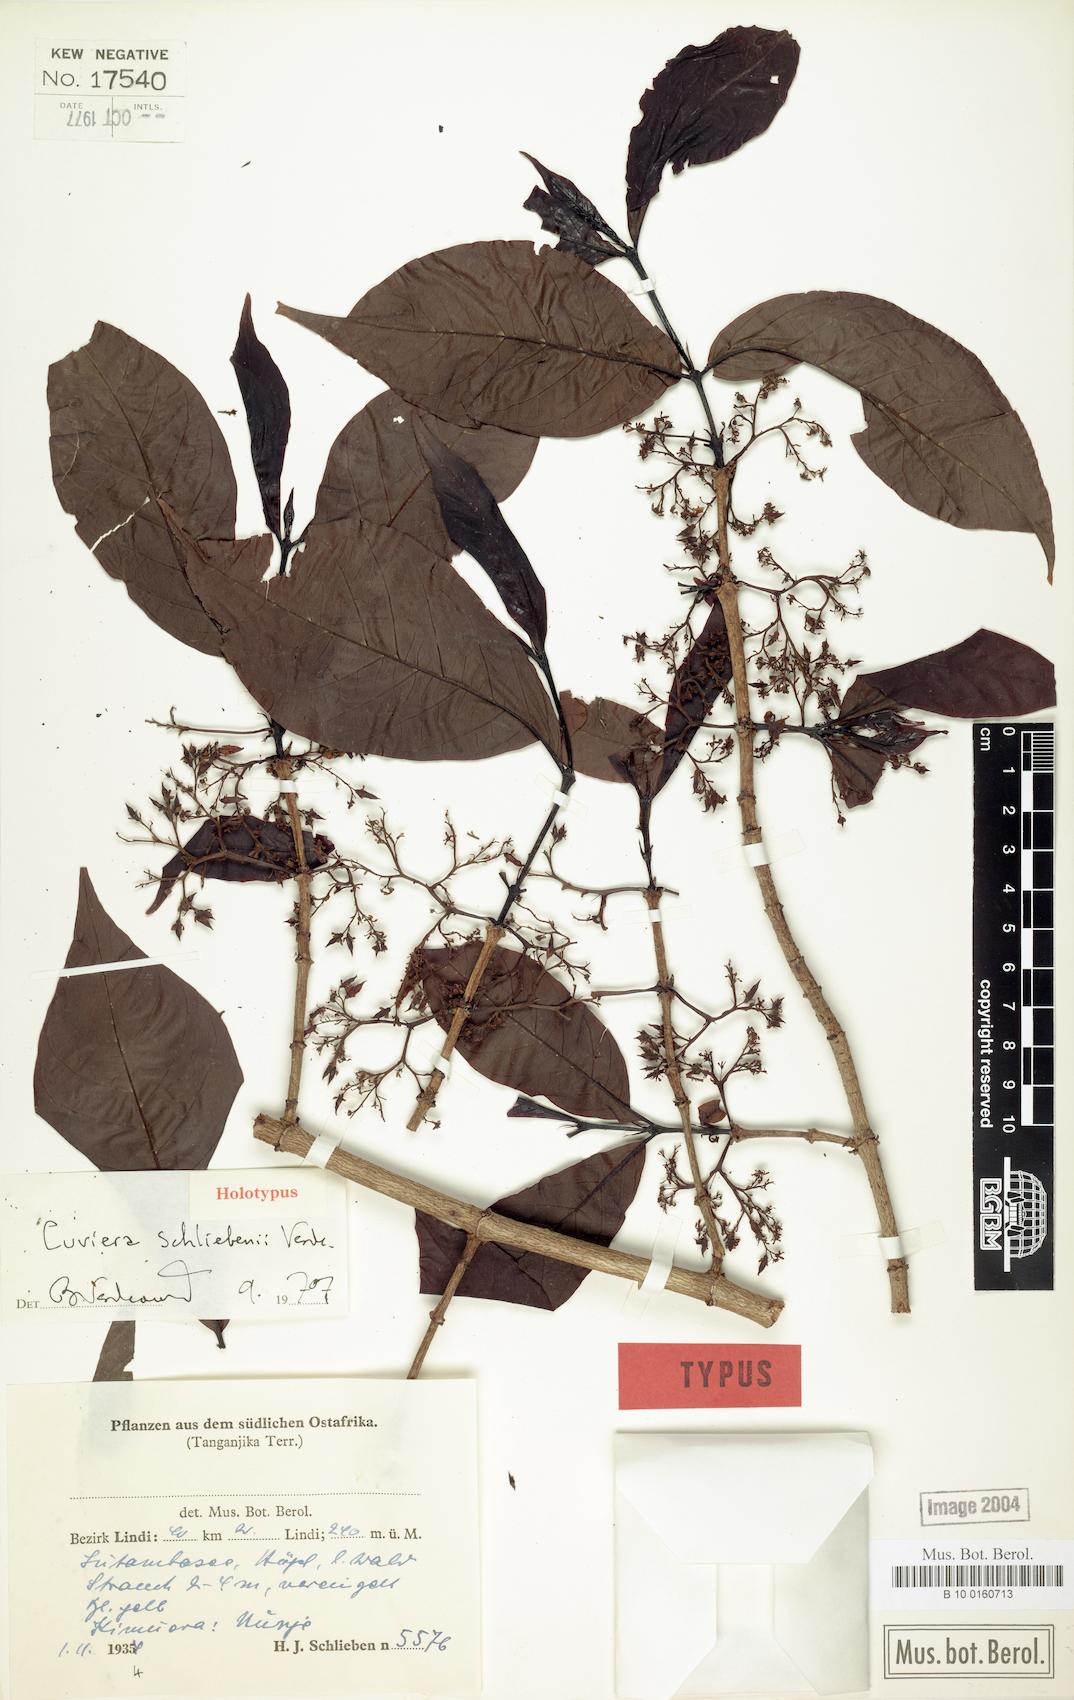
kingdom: Plantae
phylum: Tracheophyta
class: Magnoliopsida
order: Gentianales
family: Rubiaceae
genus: Cuviera
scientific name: Cuviera schliebenii
